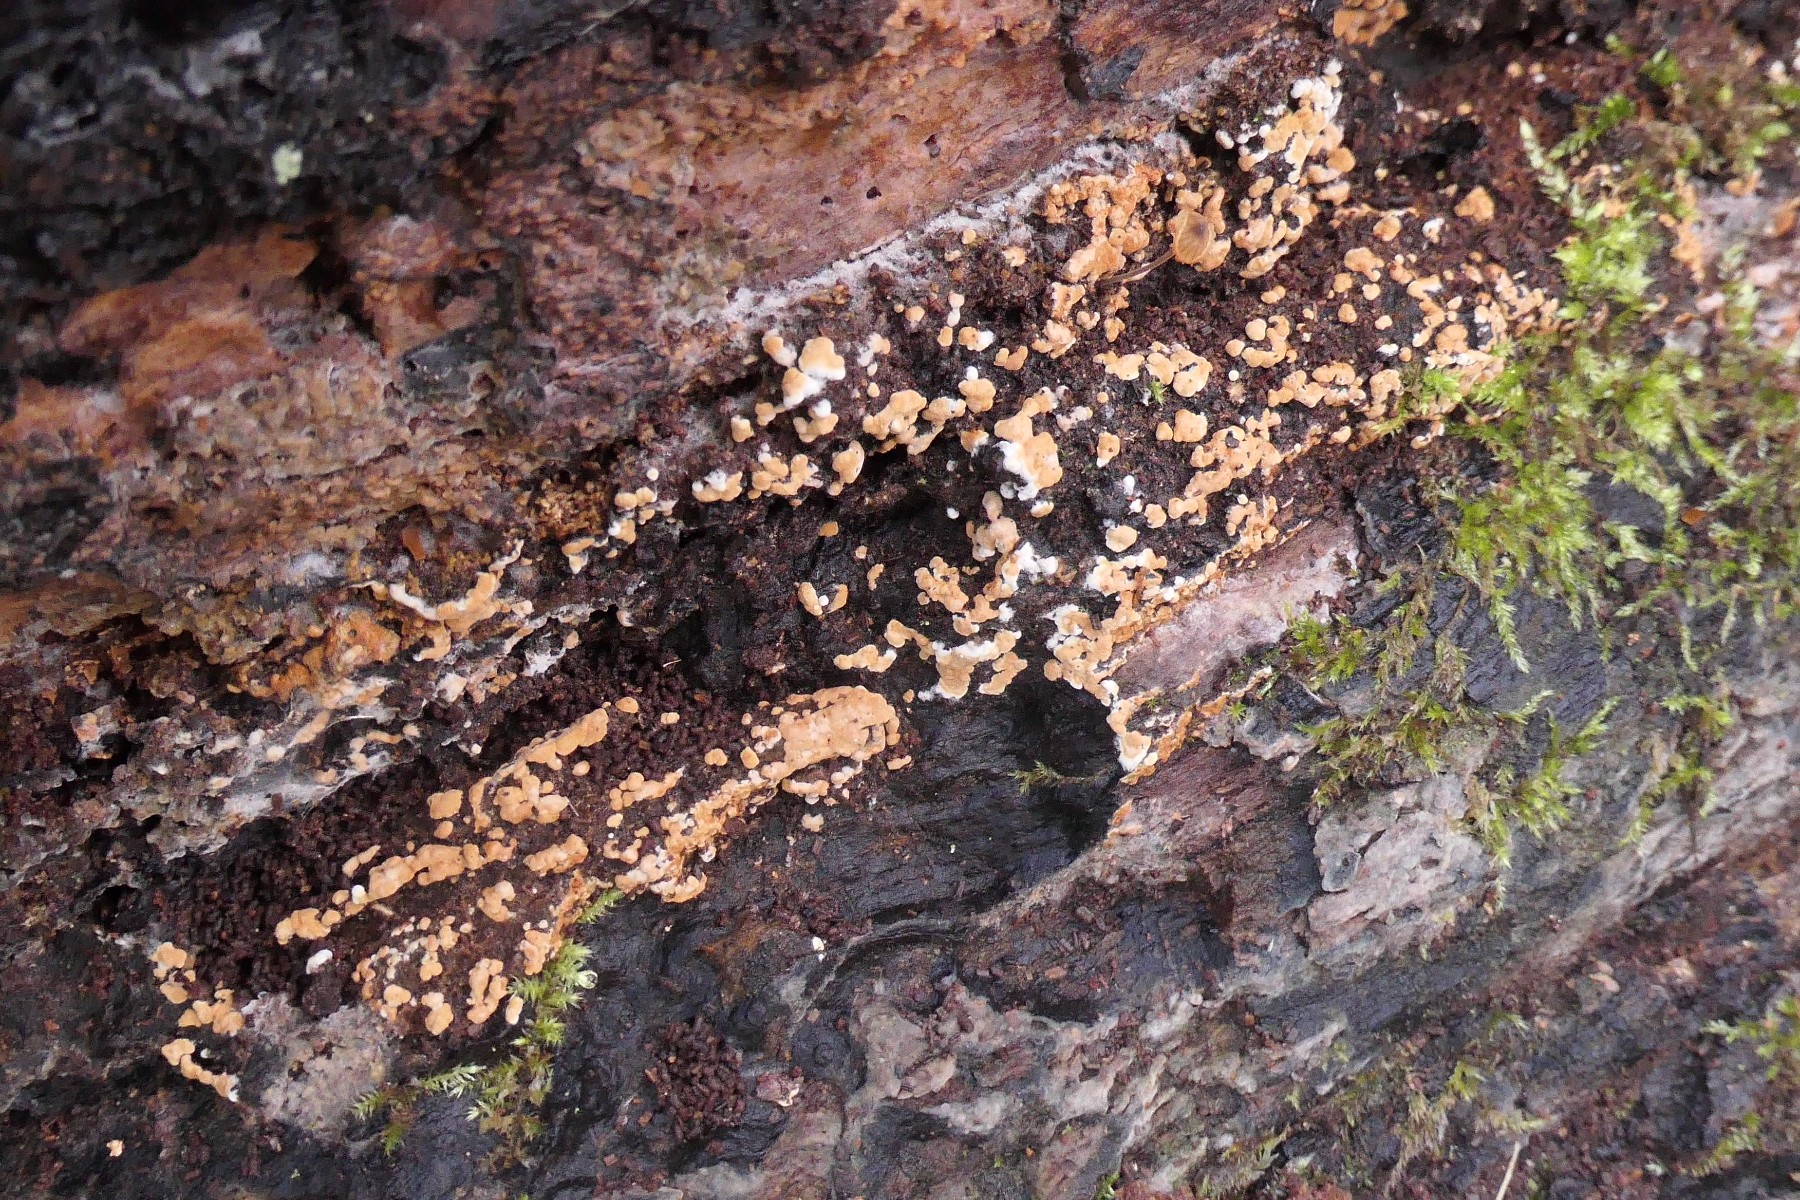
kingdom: Fungi
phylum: Basidiomycota
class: Agaricomycetes
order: Cantharellales
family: Botryobasidiaceae
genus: Botryobasidium
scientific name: Botryobasidium aureum
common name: gylden spindhinde
